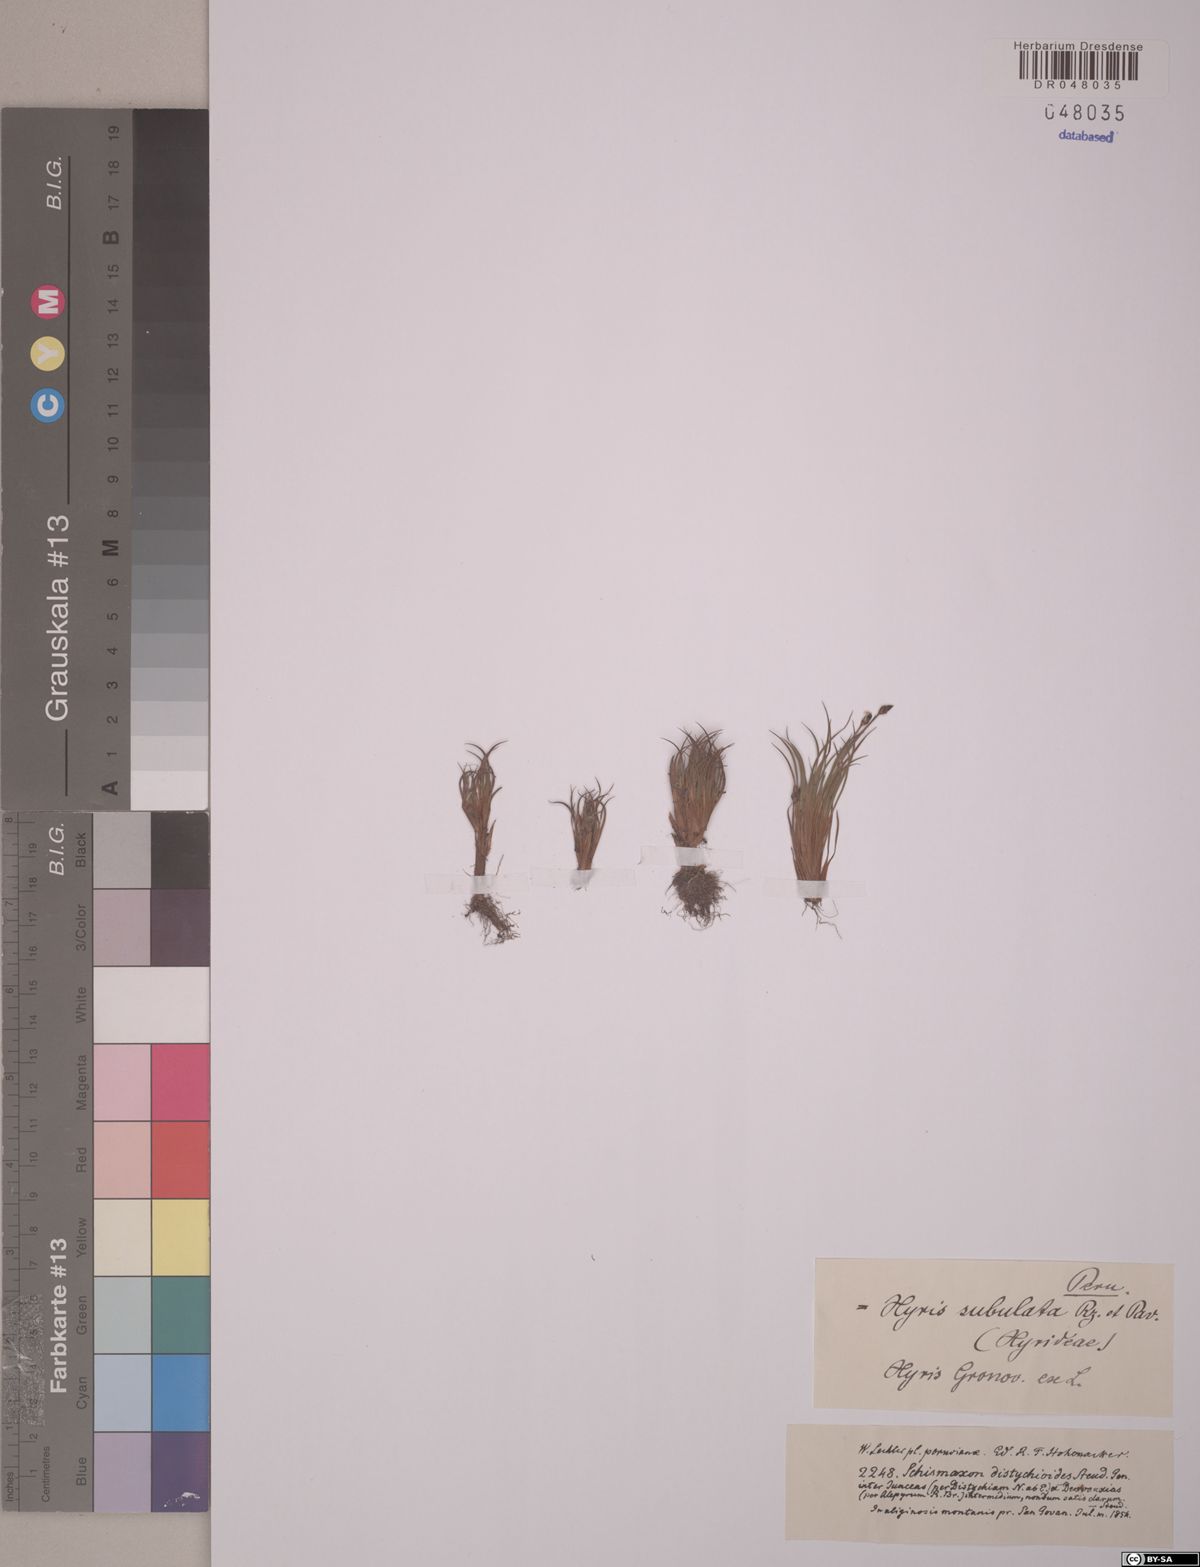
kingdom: Plantae
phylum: Tracheophyta
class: Liliopsida
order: Poales
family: Xyridaceae
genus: Xyris
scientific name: Xyris subulata
